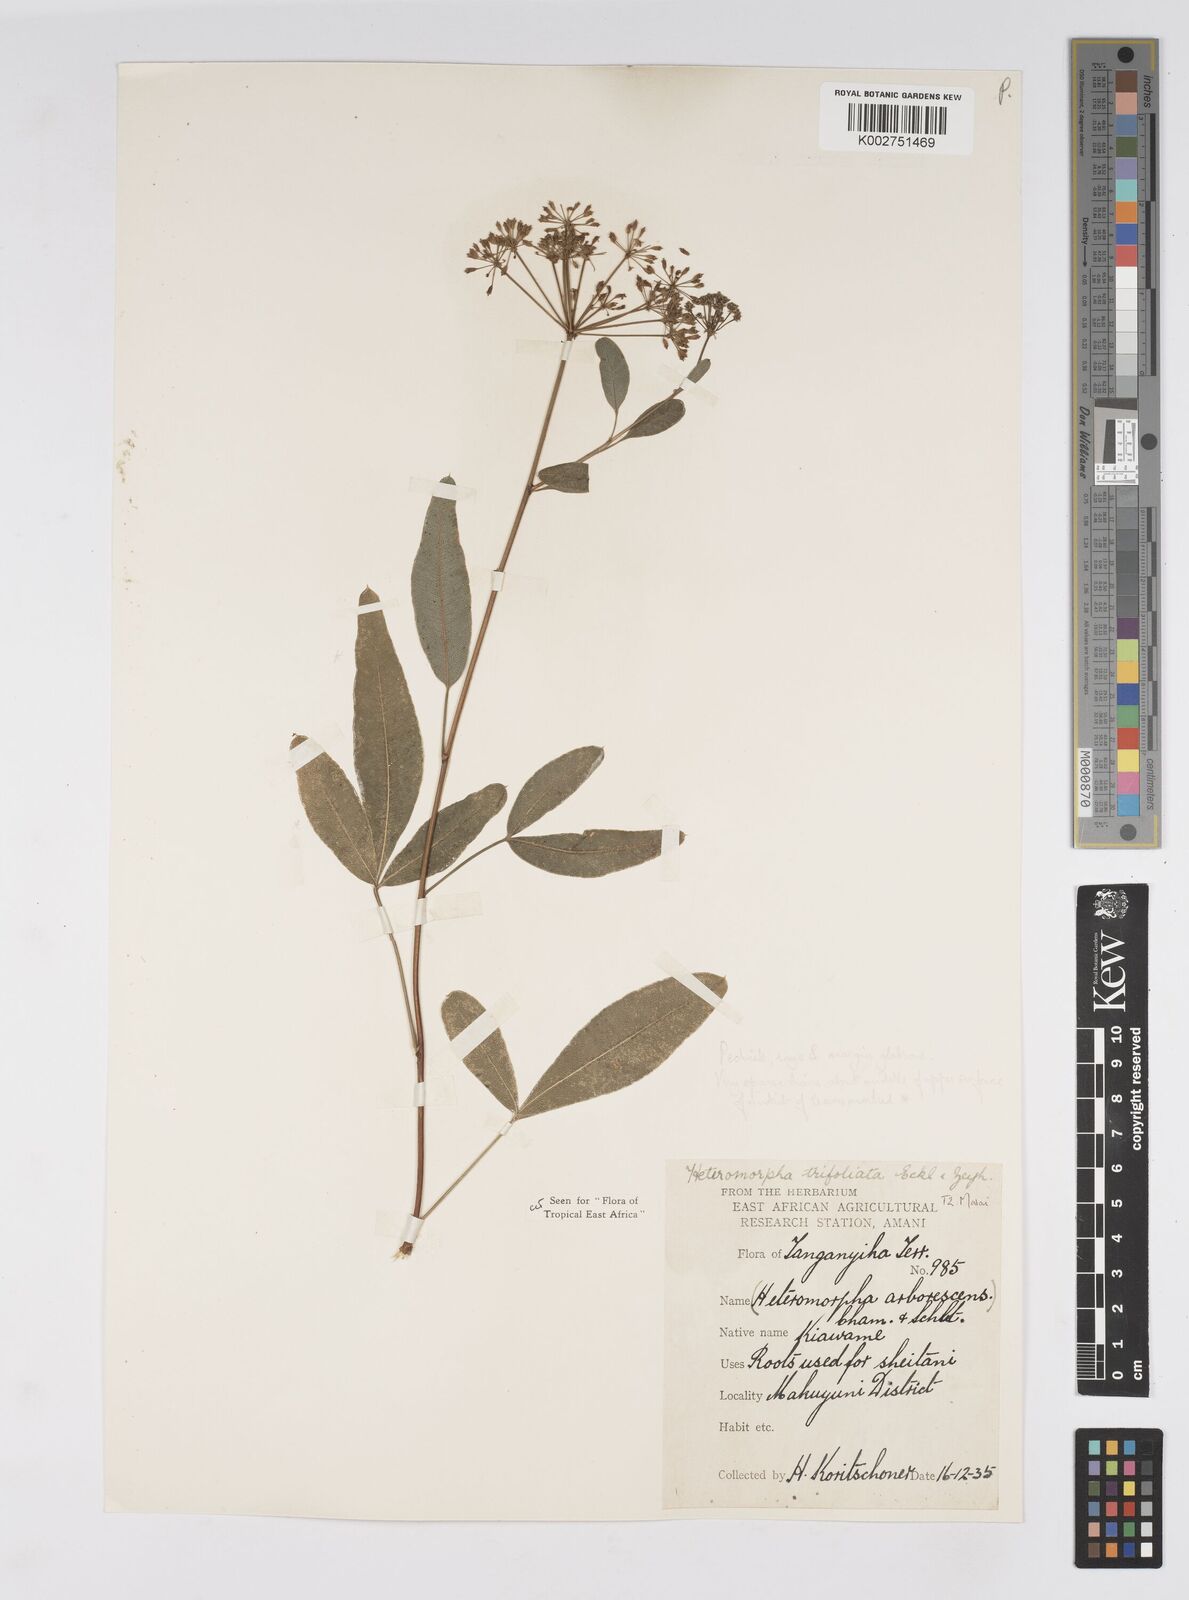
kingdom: Plantae
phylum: Tracheophyta
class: Magnoliopsida
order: Apiales
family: Apiaceae
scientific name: Apiaceae
